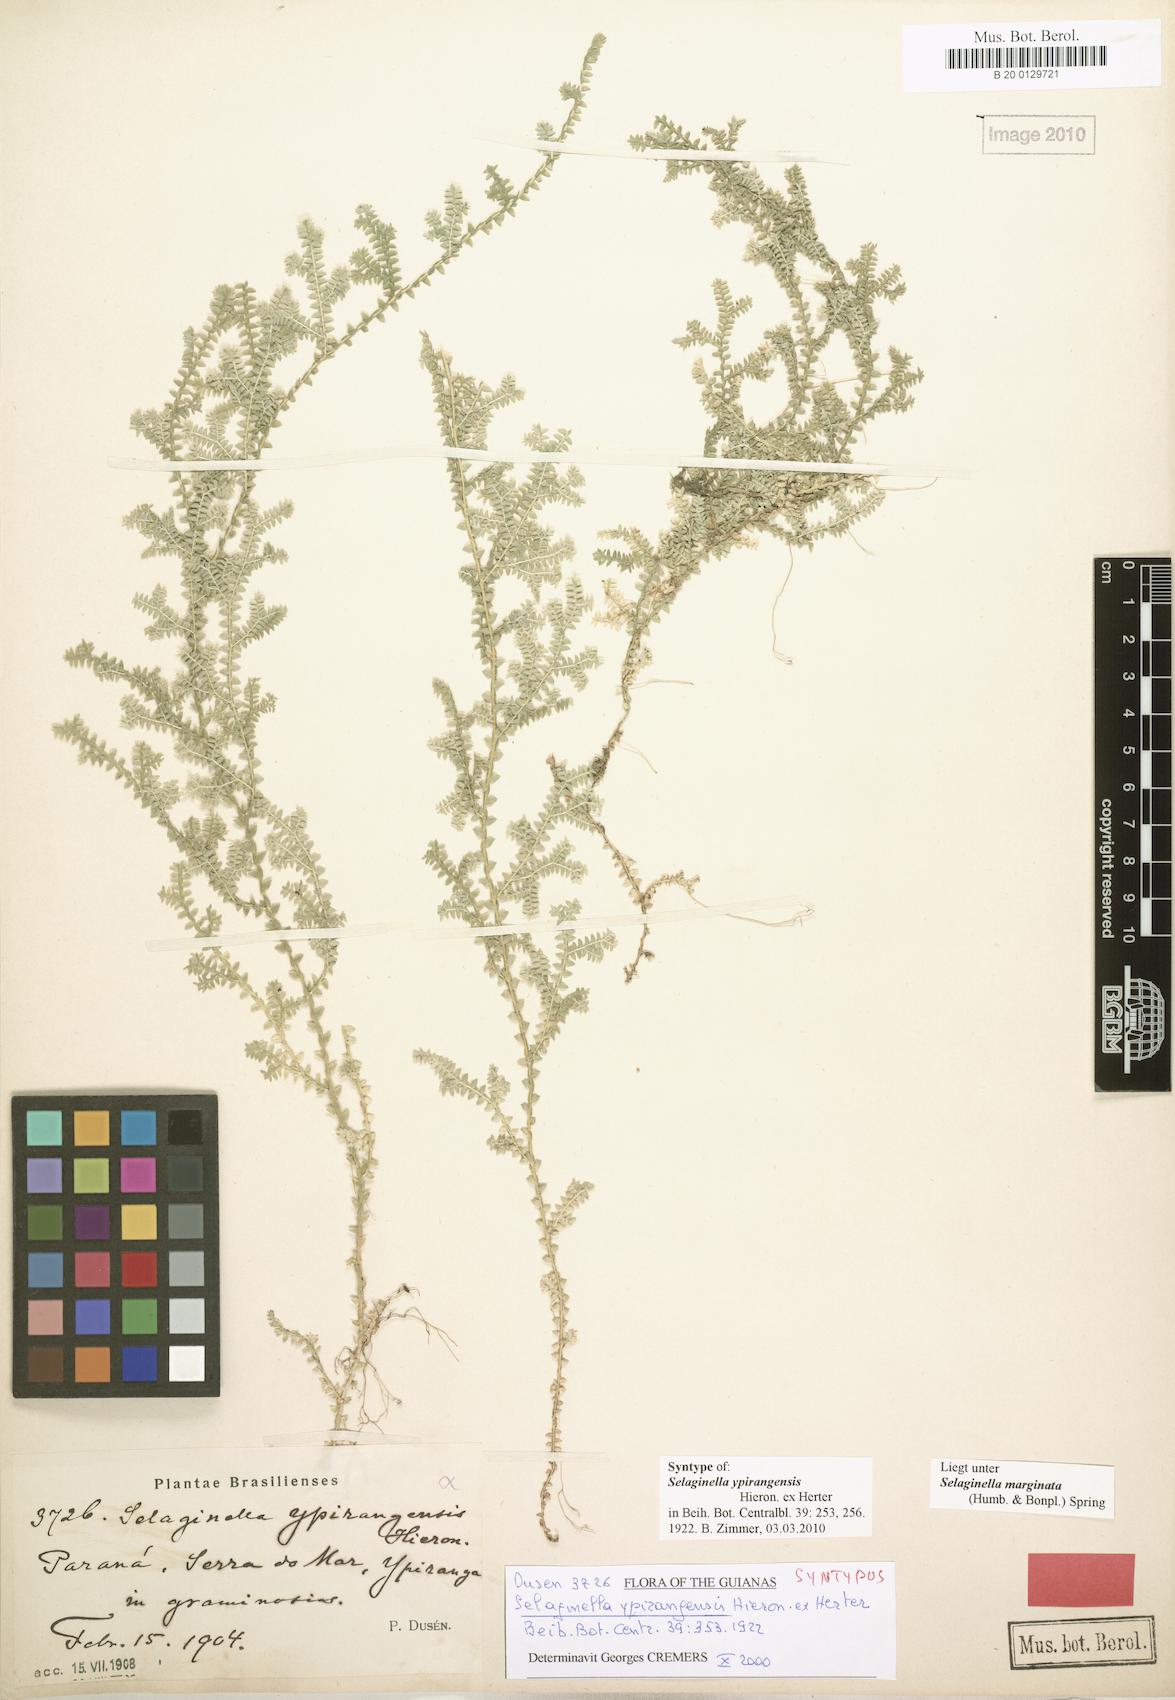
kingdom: Plantae
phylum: Tracheophyta
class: Lycopodiopsida
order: Selaginellales
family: Selaginellaceae
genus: Selaginella
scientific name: Selaginella marginata
